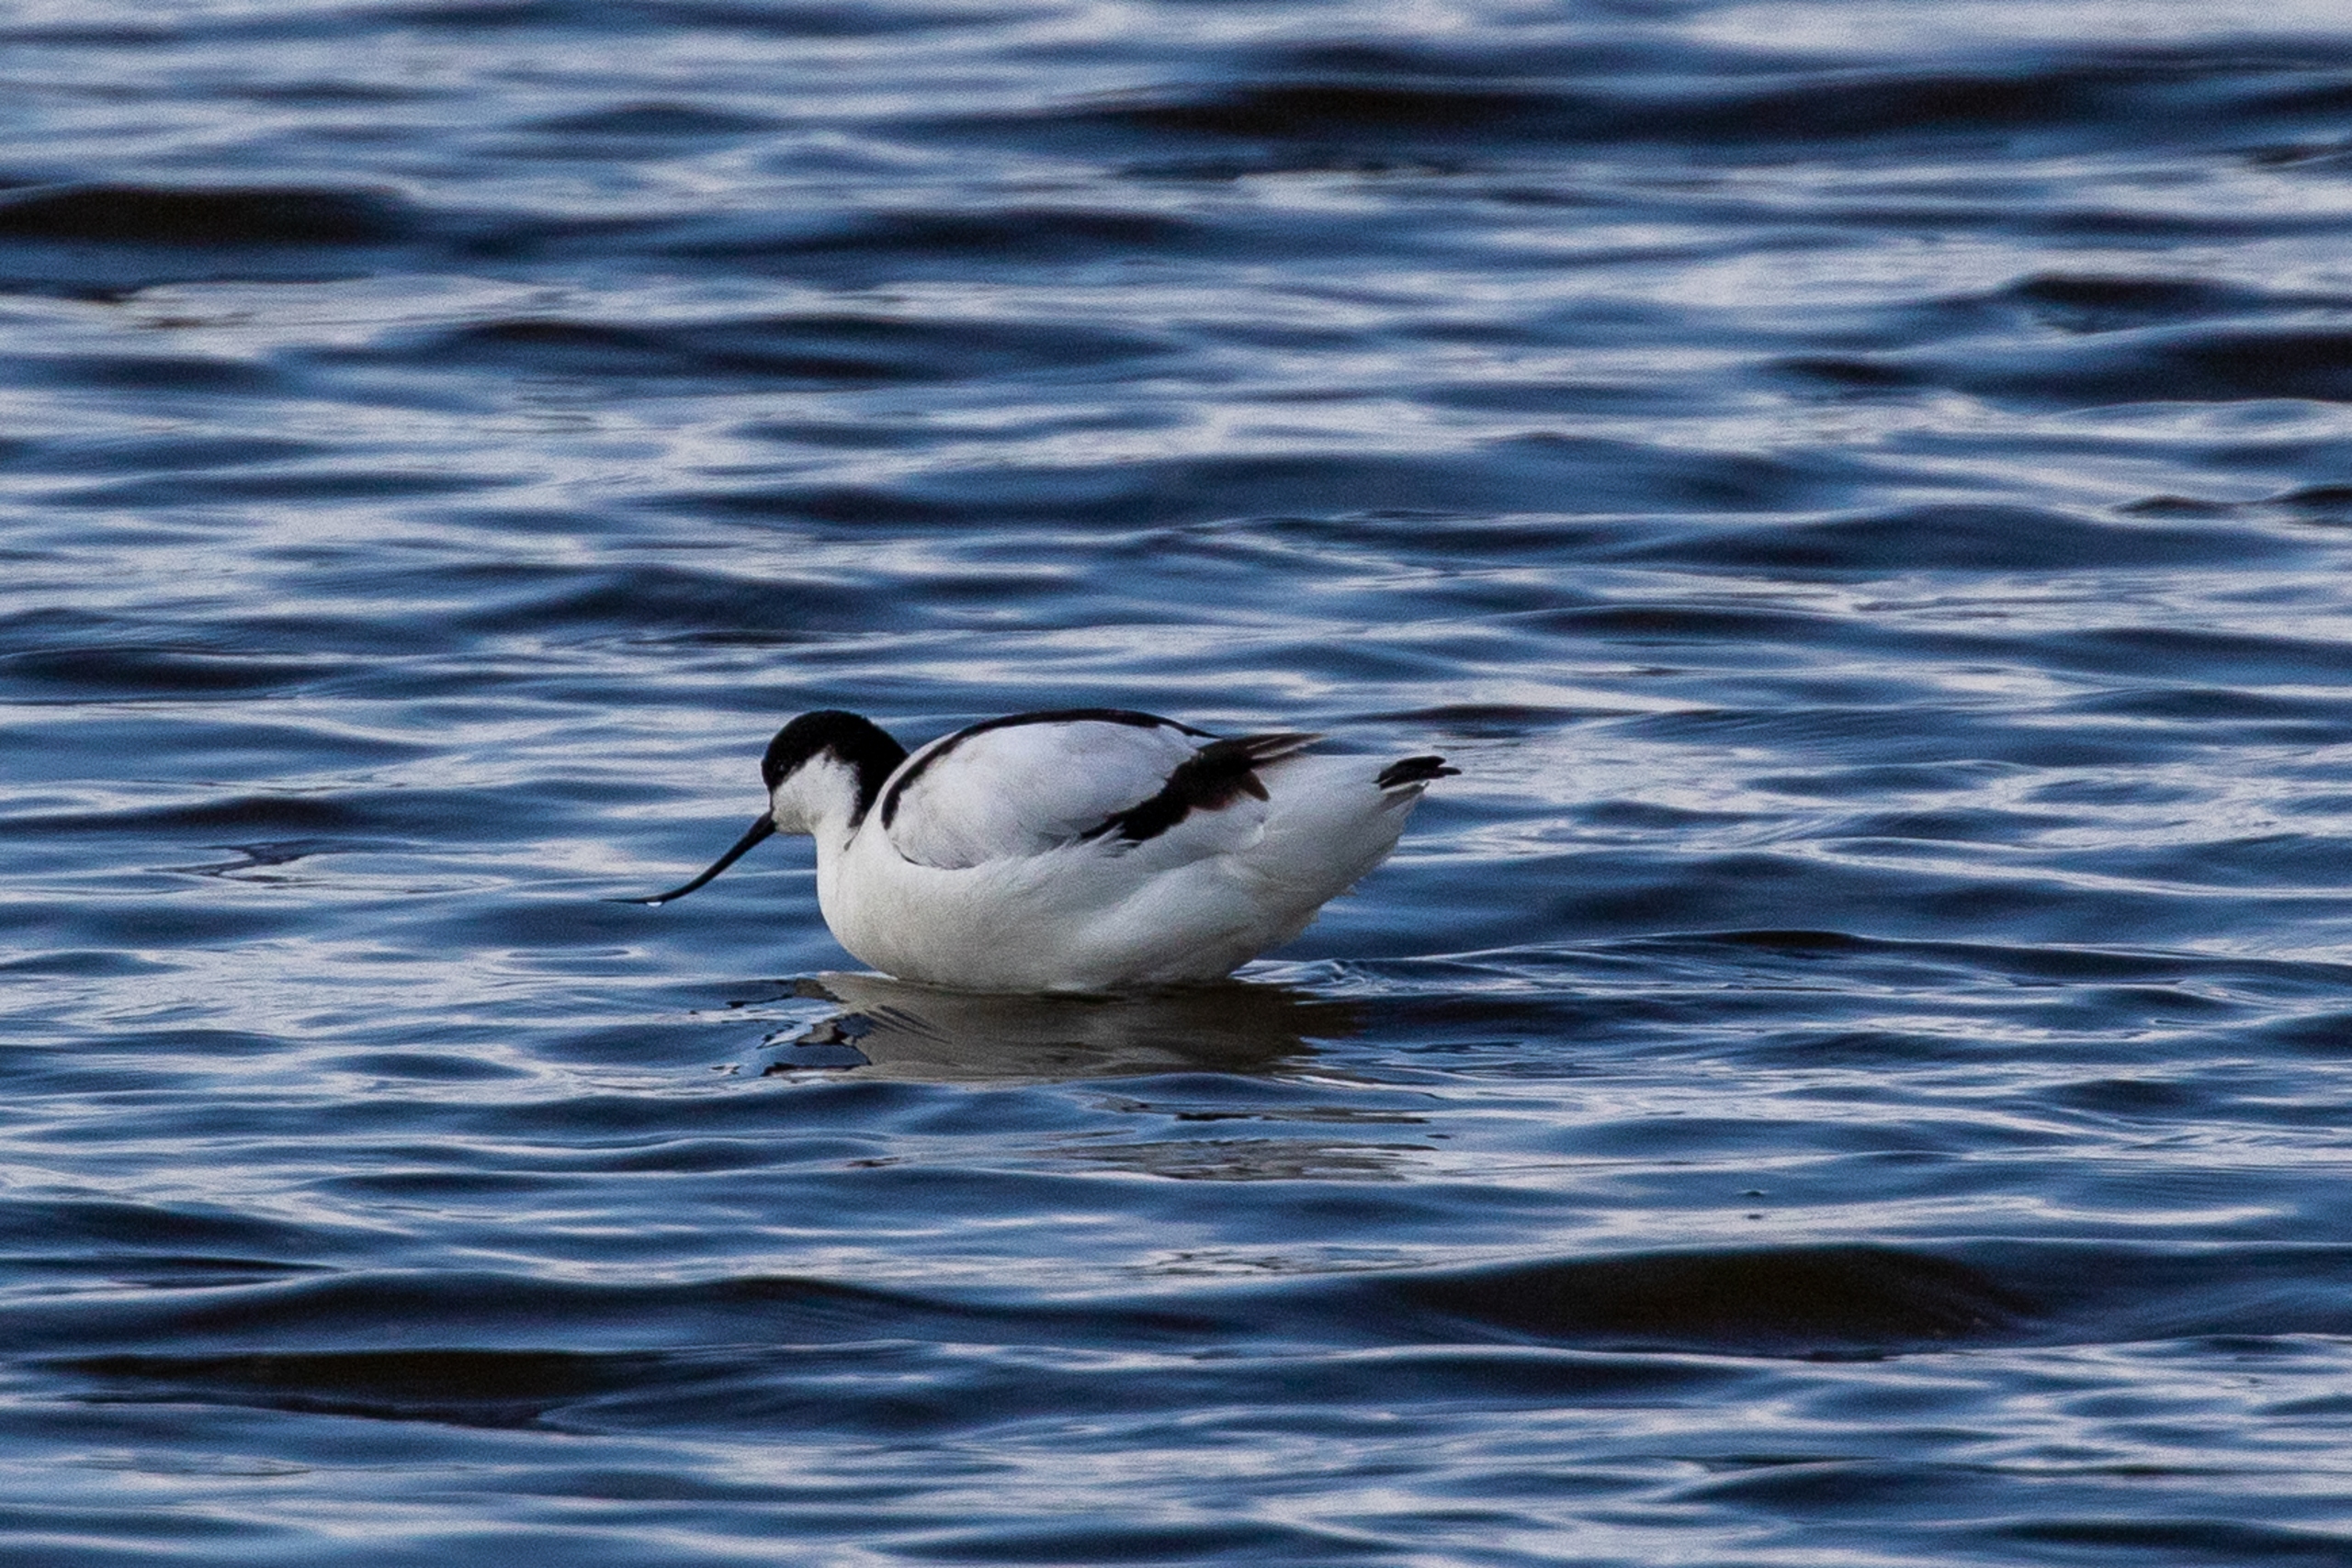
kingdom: Animalia
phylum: Chordata
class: Aves
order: Charadriiformes
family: Recurvirostridae
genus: Recurvirostra
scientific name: Recurvirostra avosetta
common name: Klyde
